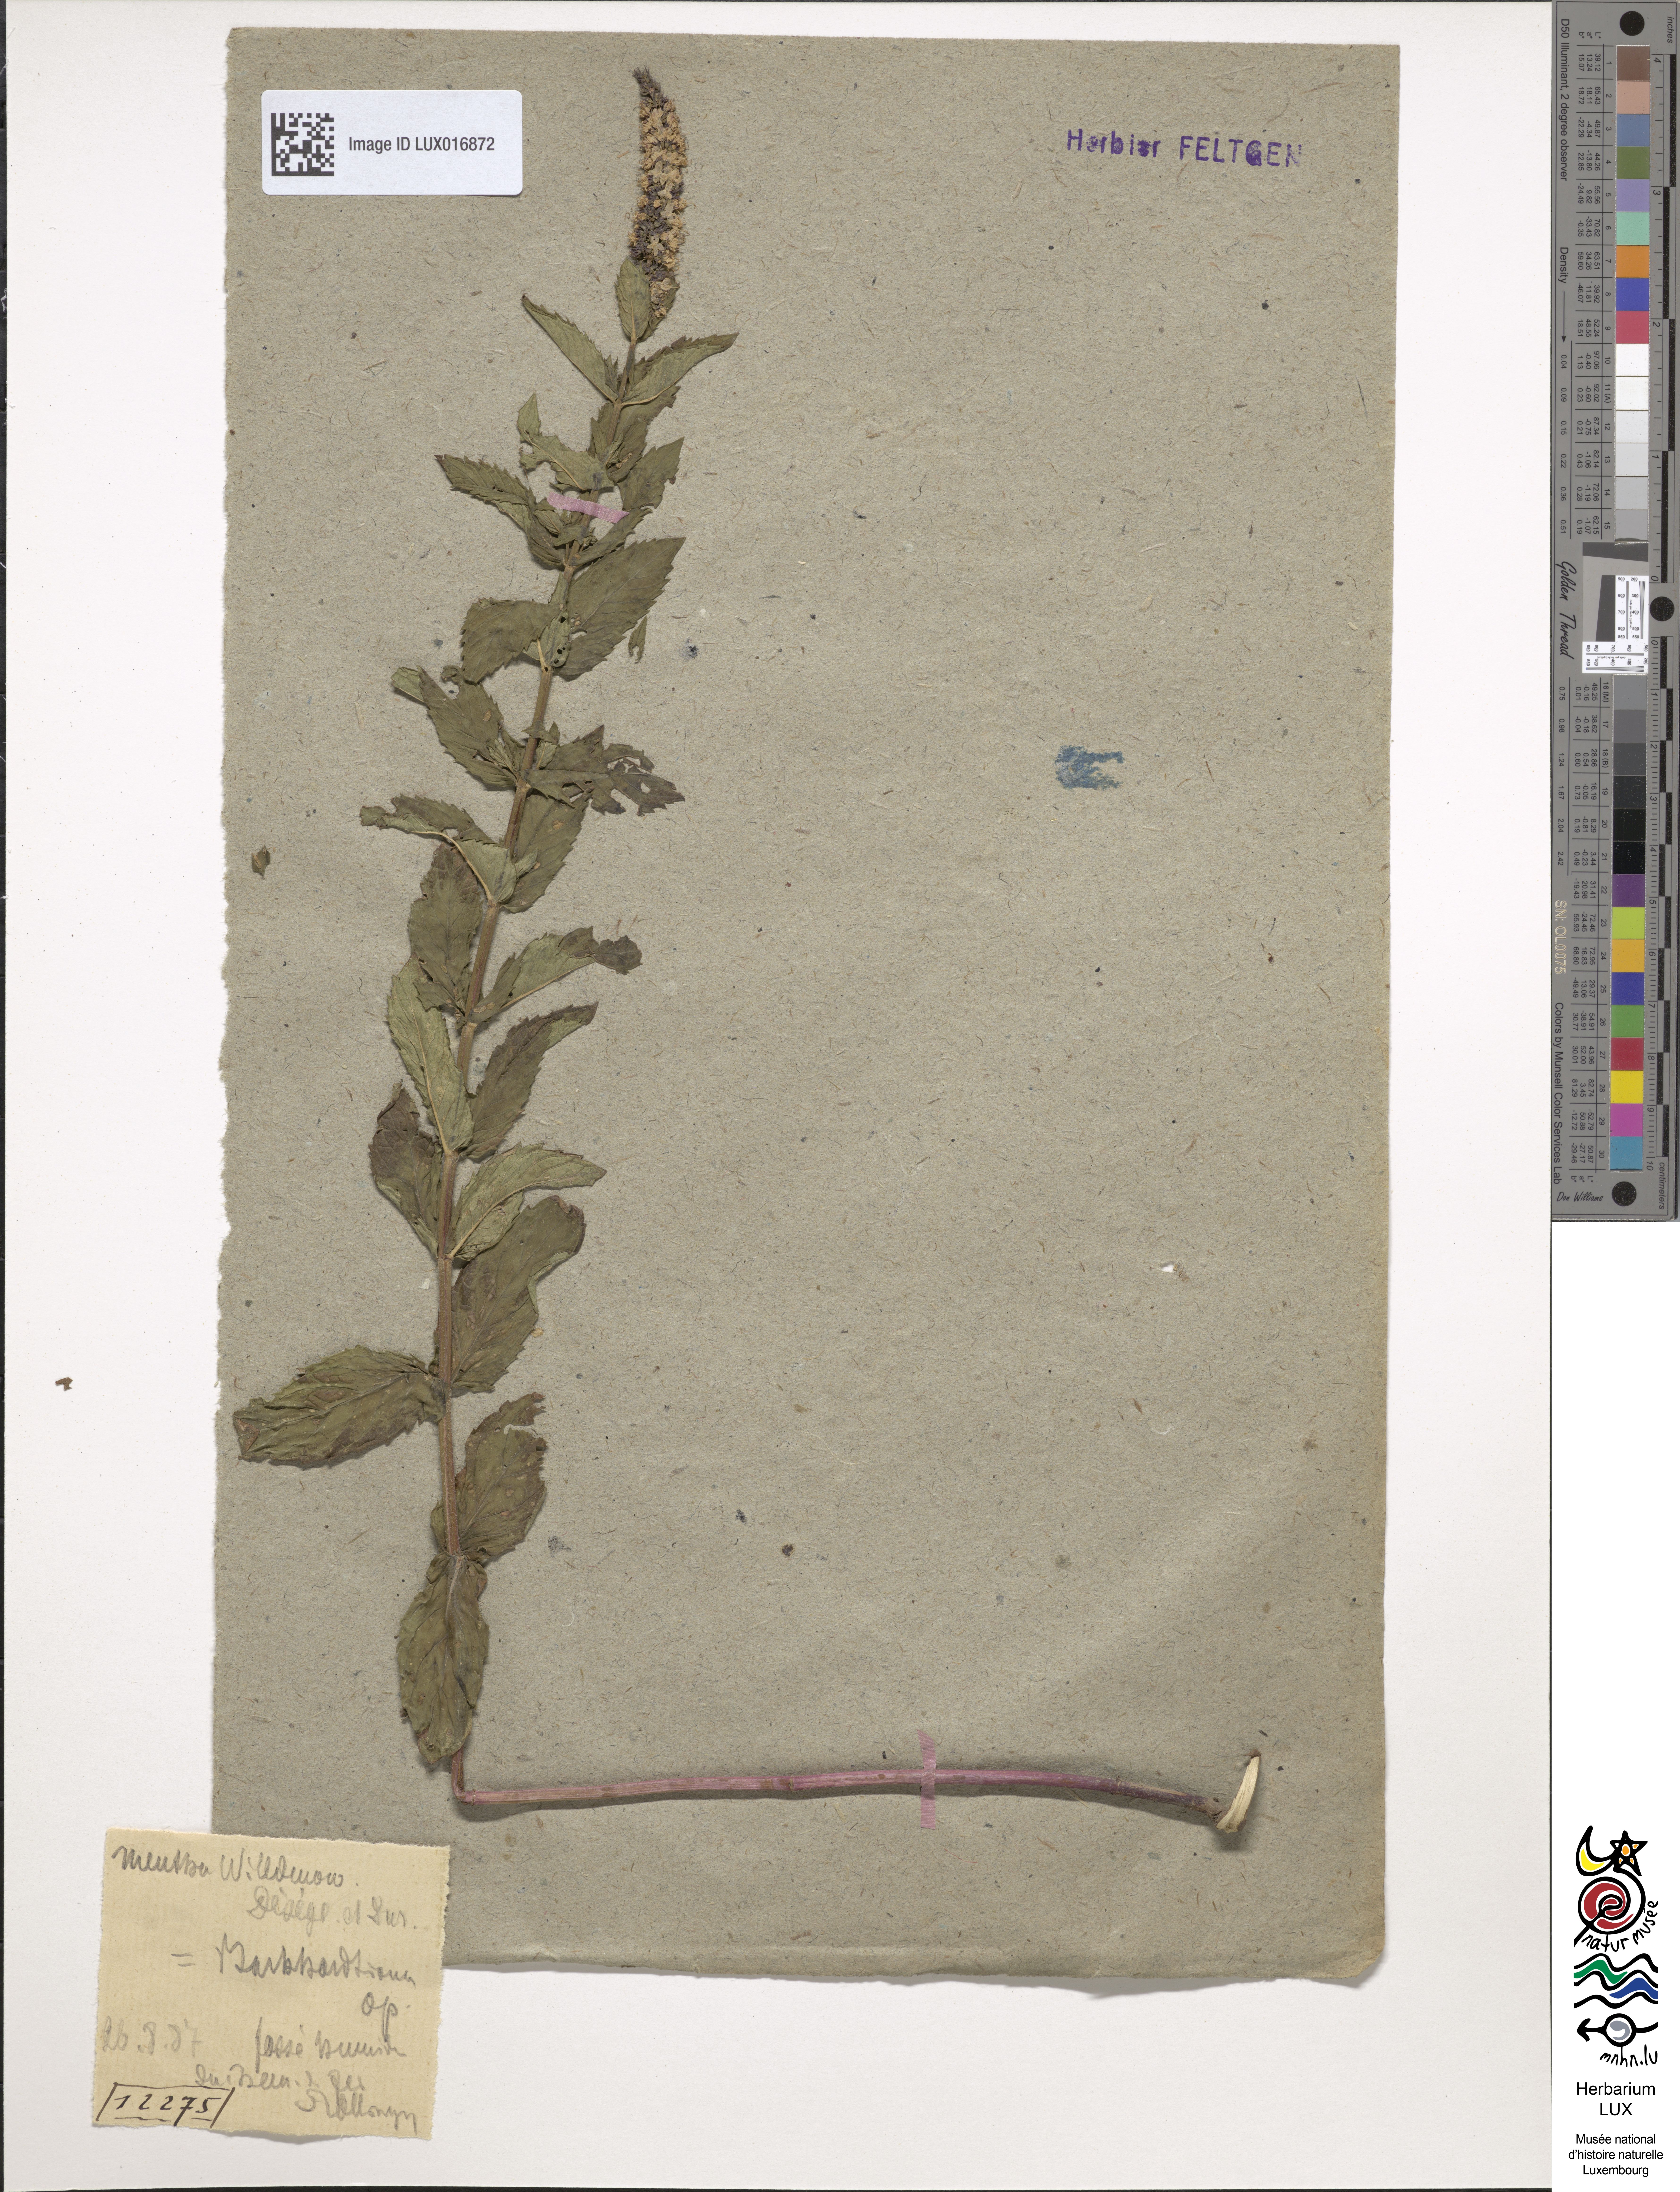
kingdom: Plantae
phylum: Tracheophyta
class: Magnoliopsida
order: Lamiales
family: Lamiaceae
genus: Mentha
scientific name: Mentha rotundifolia
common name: Bigleaf mint
